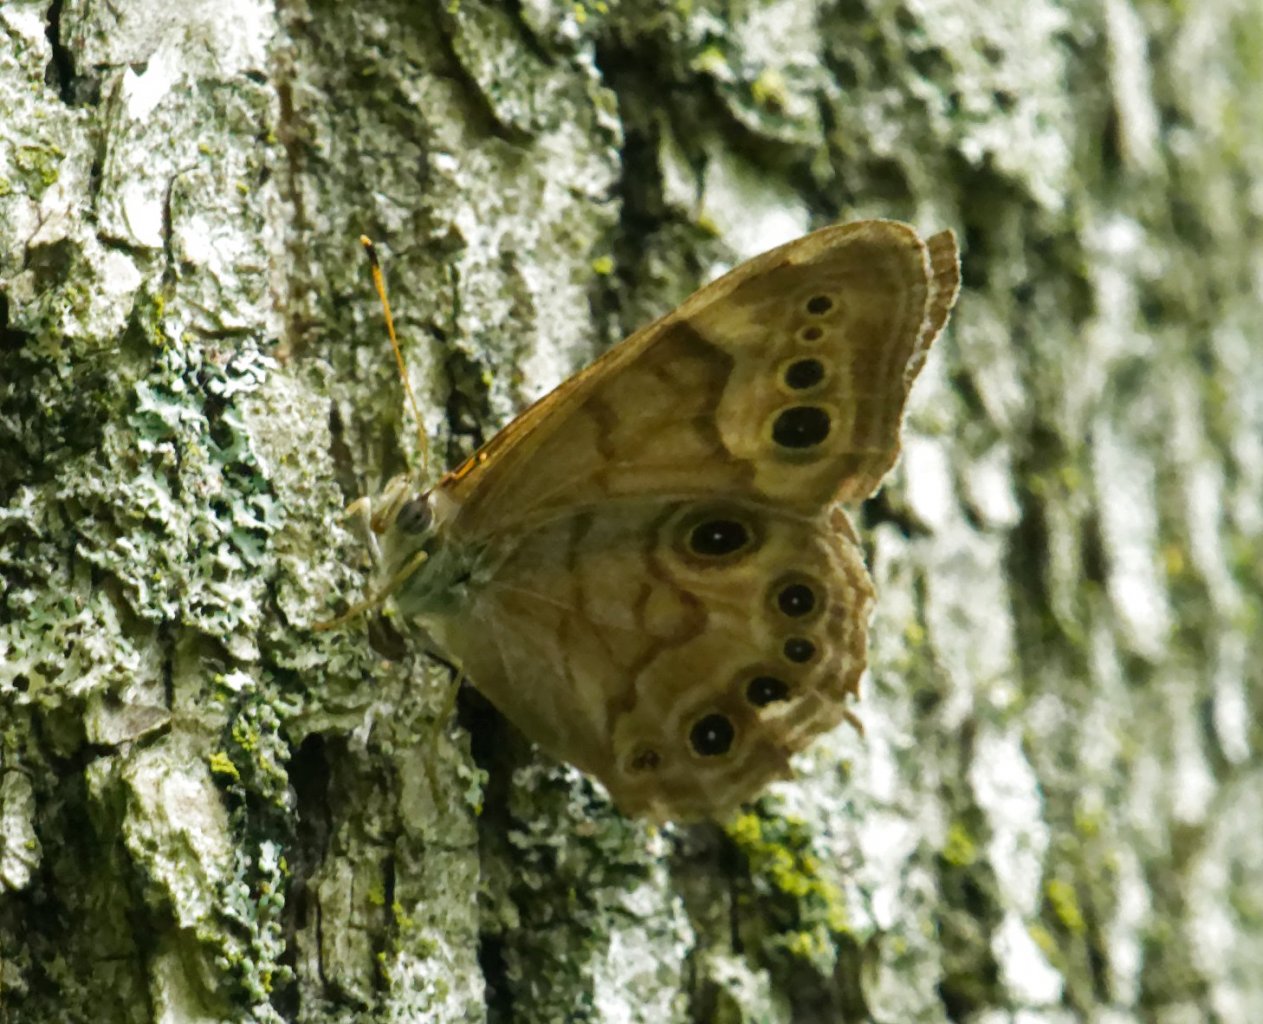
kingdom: Animalia
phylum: Arthropoda
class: Insecta
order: Lepidoptera
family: Nymphalidae
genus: Lethe
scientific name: Lethe anthedon
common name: Northern Pearly-Eye
